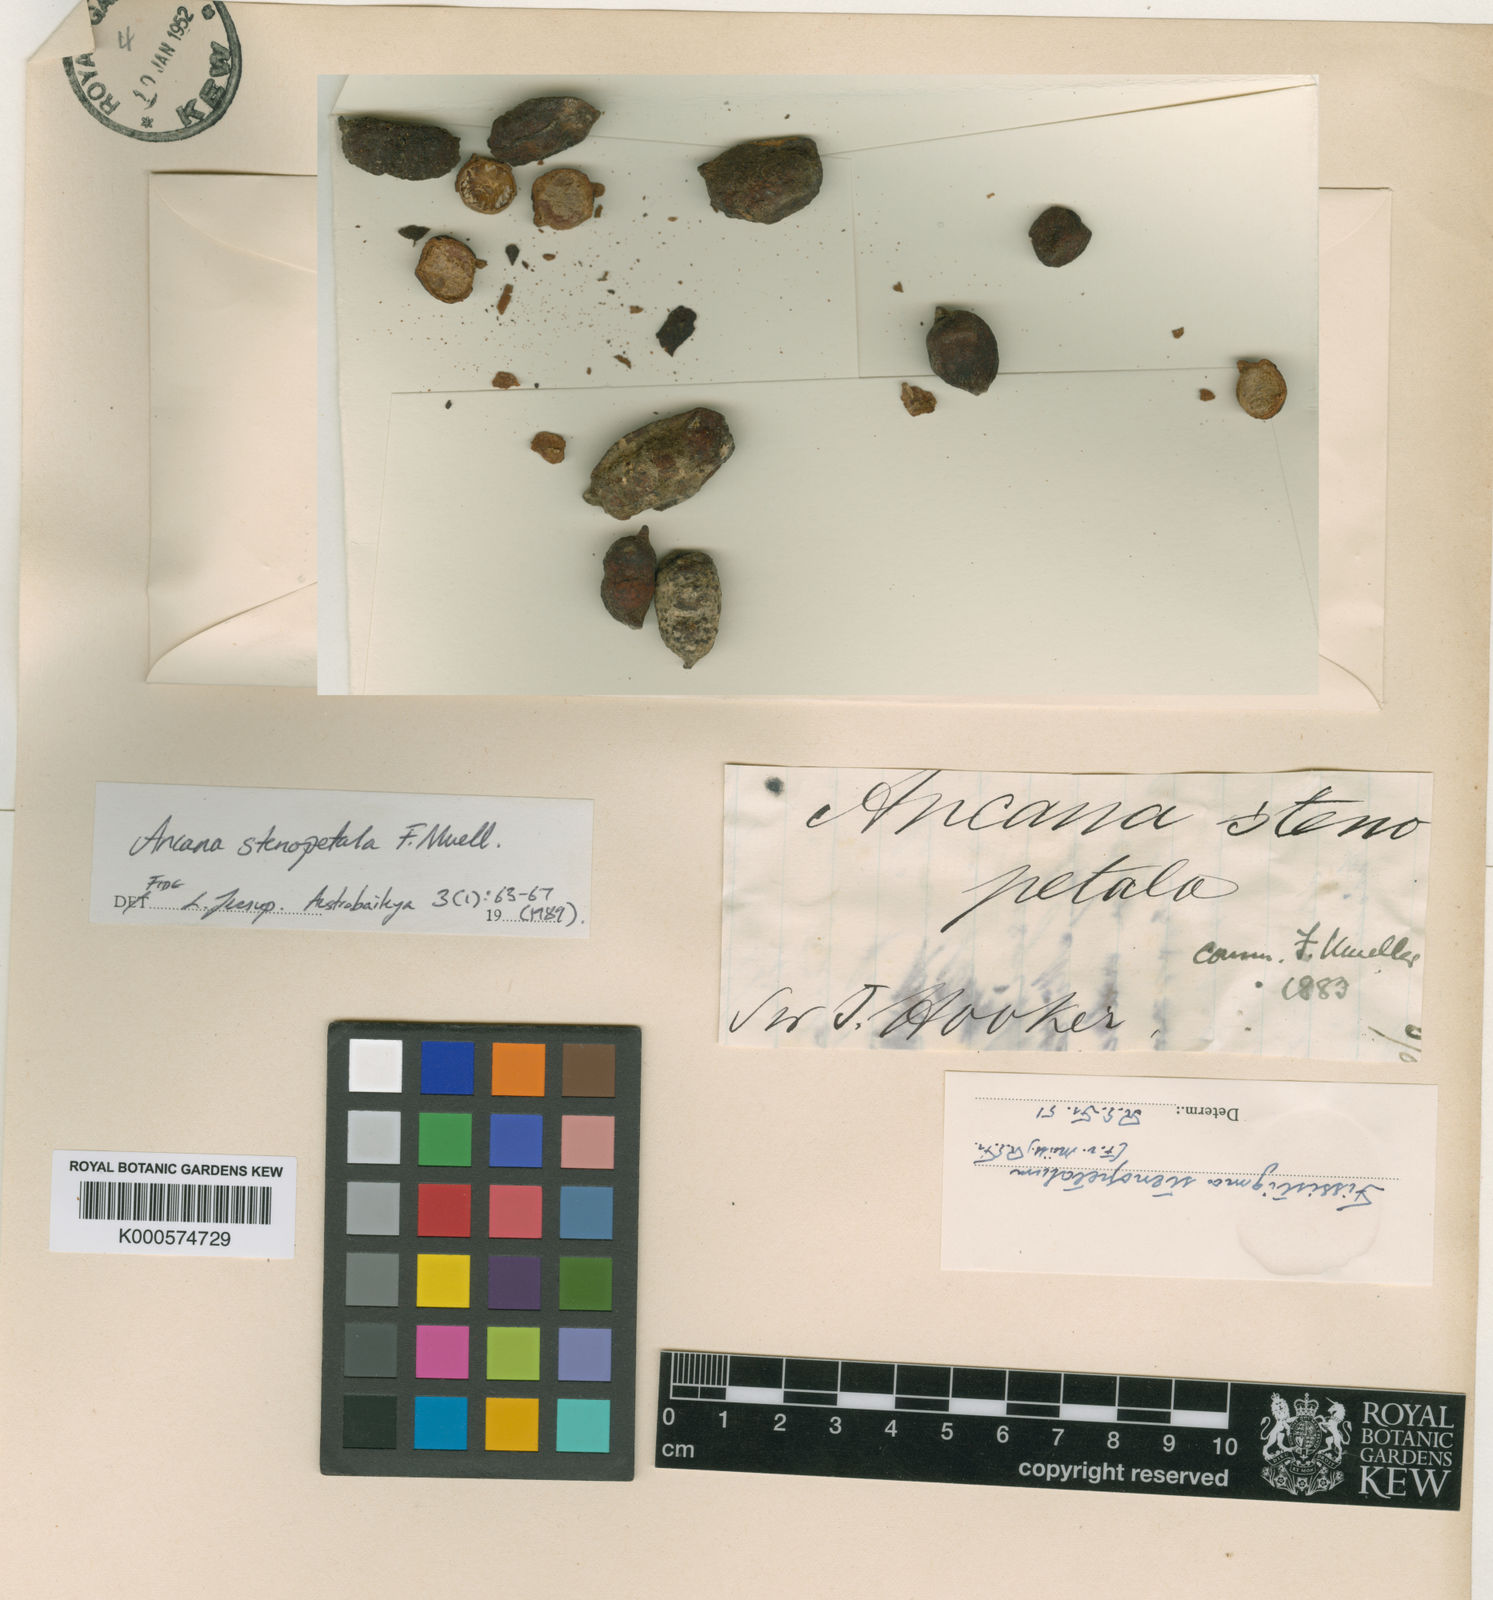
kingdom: Plantae
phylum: Tracheophyta
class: Magnoliopsida
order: Magnoliales
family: Annonaceae
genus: Meiogyne
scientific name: Meiogyne stenopetala
